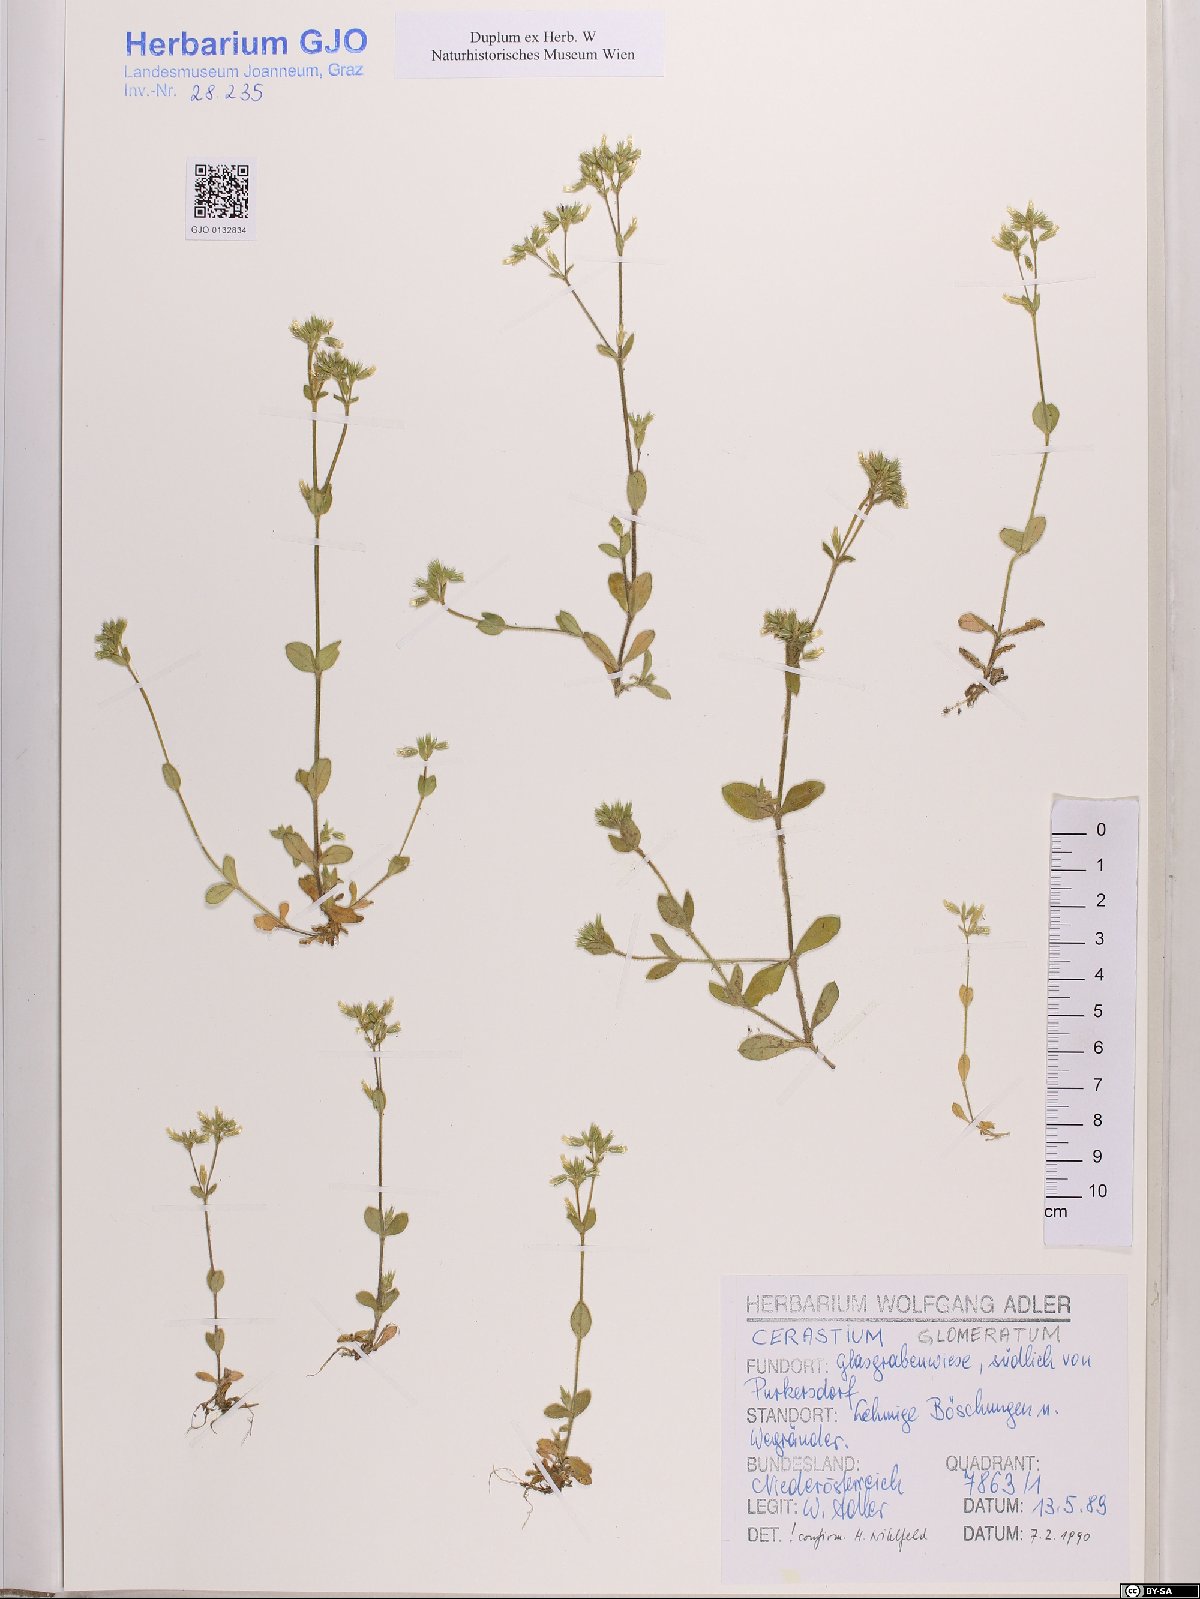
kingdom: Plantae
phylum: Tracheophyta
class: Magnoliopsida
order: Caryophyllales
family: Caryophyllaceae
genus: Cerastium
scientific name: Cerastium glomeratum
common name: Sticky chickweed
